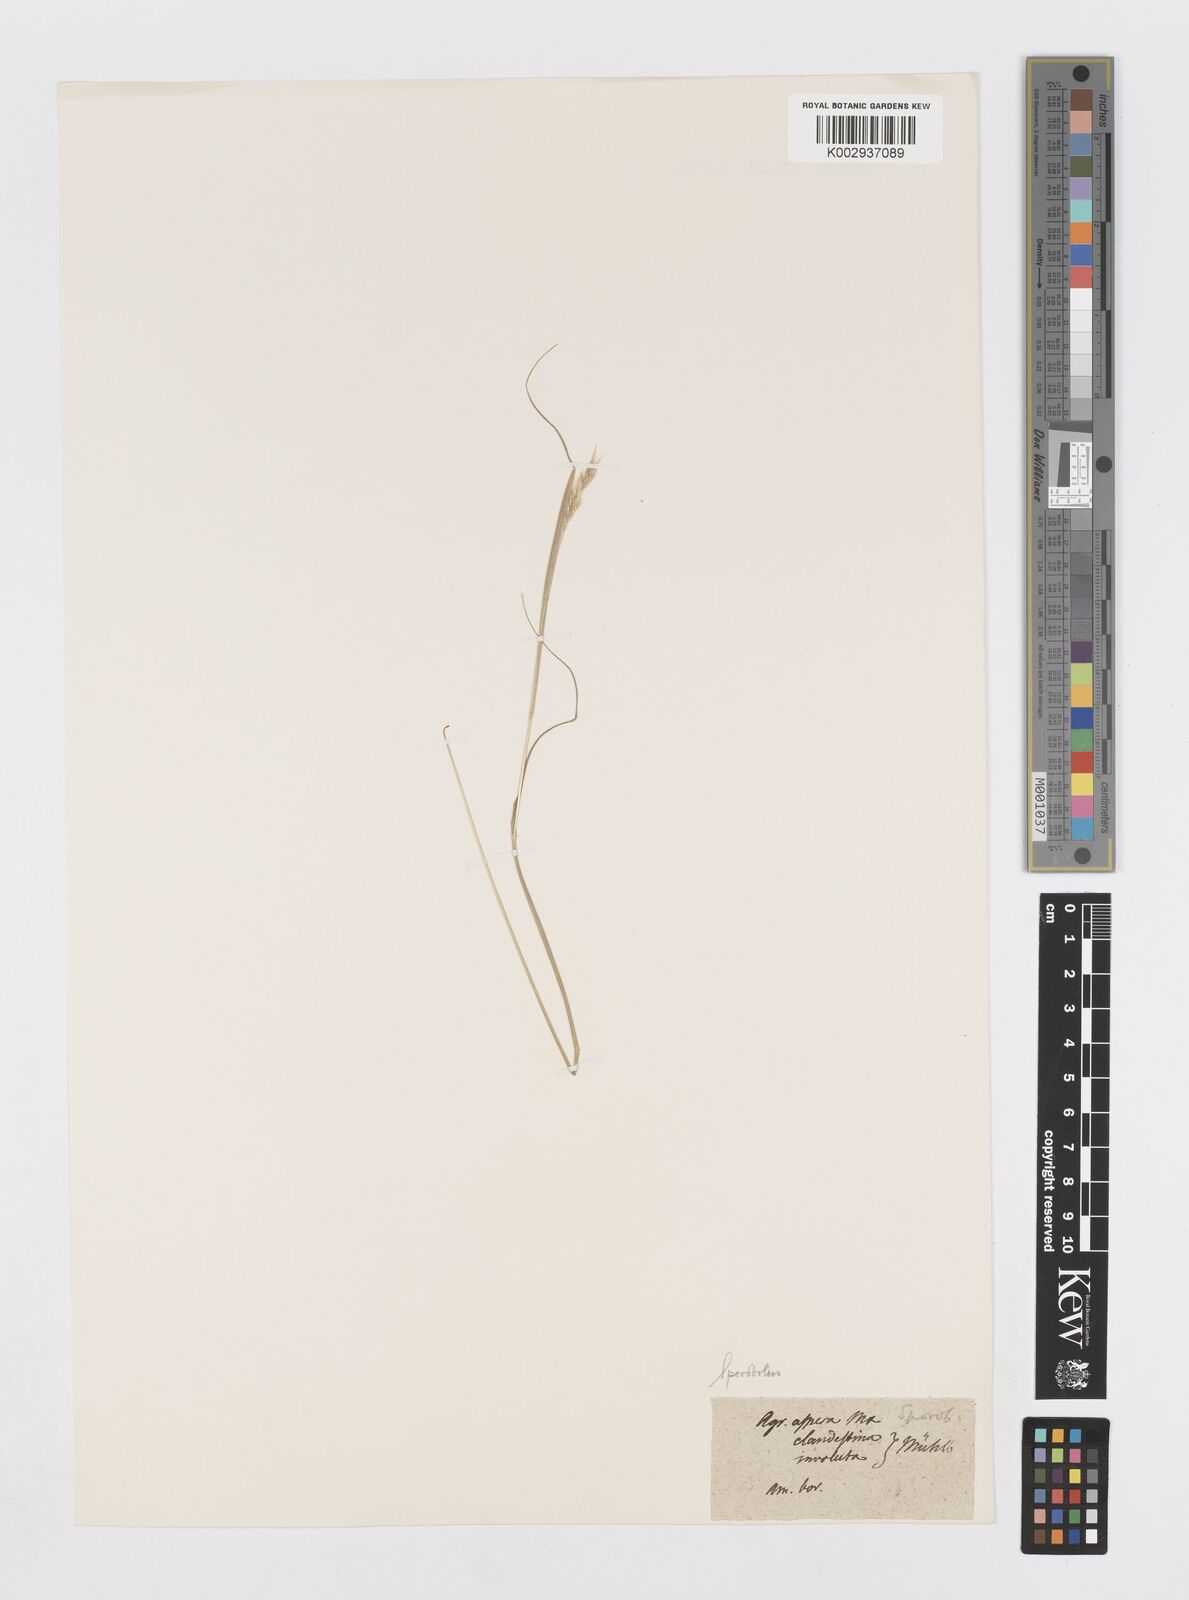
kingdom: Plantae
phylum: Tracheophyta
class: Liliopsida
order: Poales
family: Poaceae
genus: Sporobolus
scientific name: Sporobolus vaginiflorus
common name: Poverty dropseed
